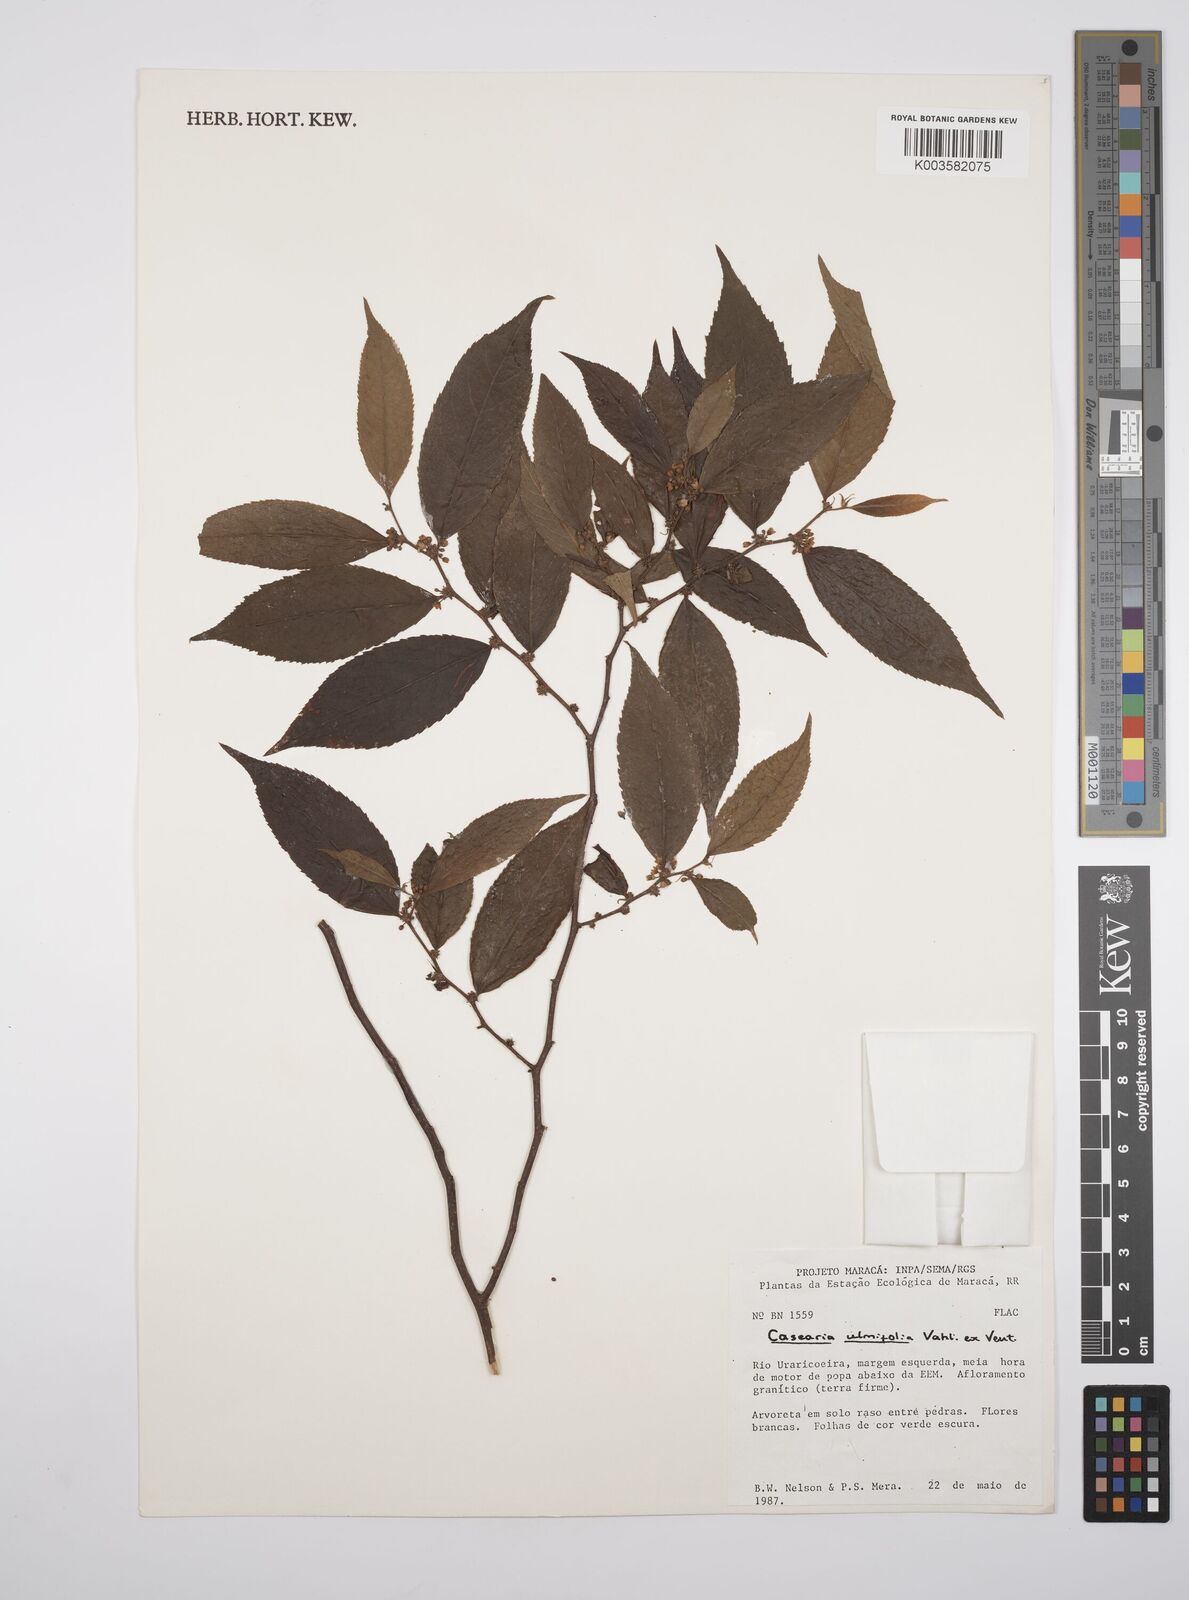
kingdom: Plantae
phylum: Tracheophyta
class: Magnoliopsida
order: Malpighiales
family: Salicaceae
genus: Casearia
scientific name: Casearia ulmifolia
